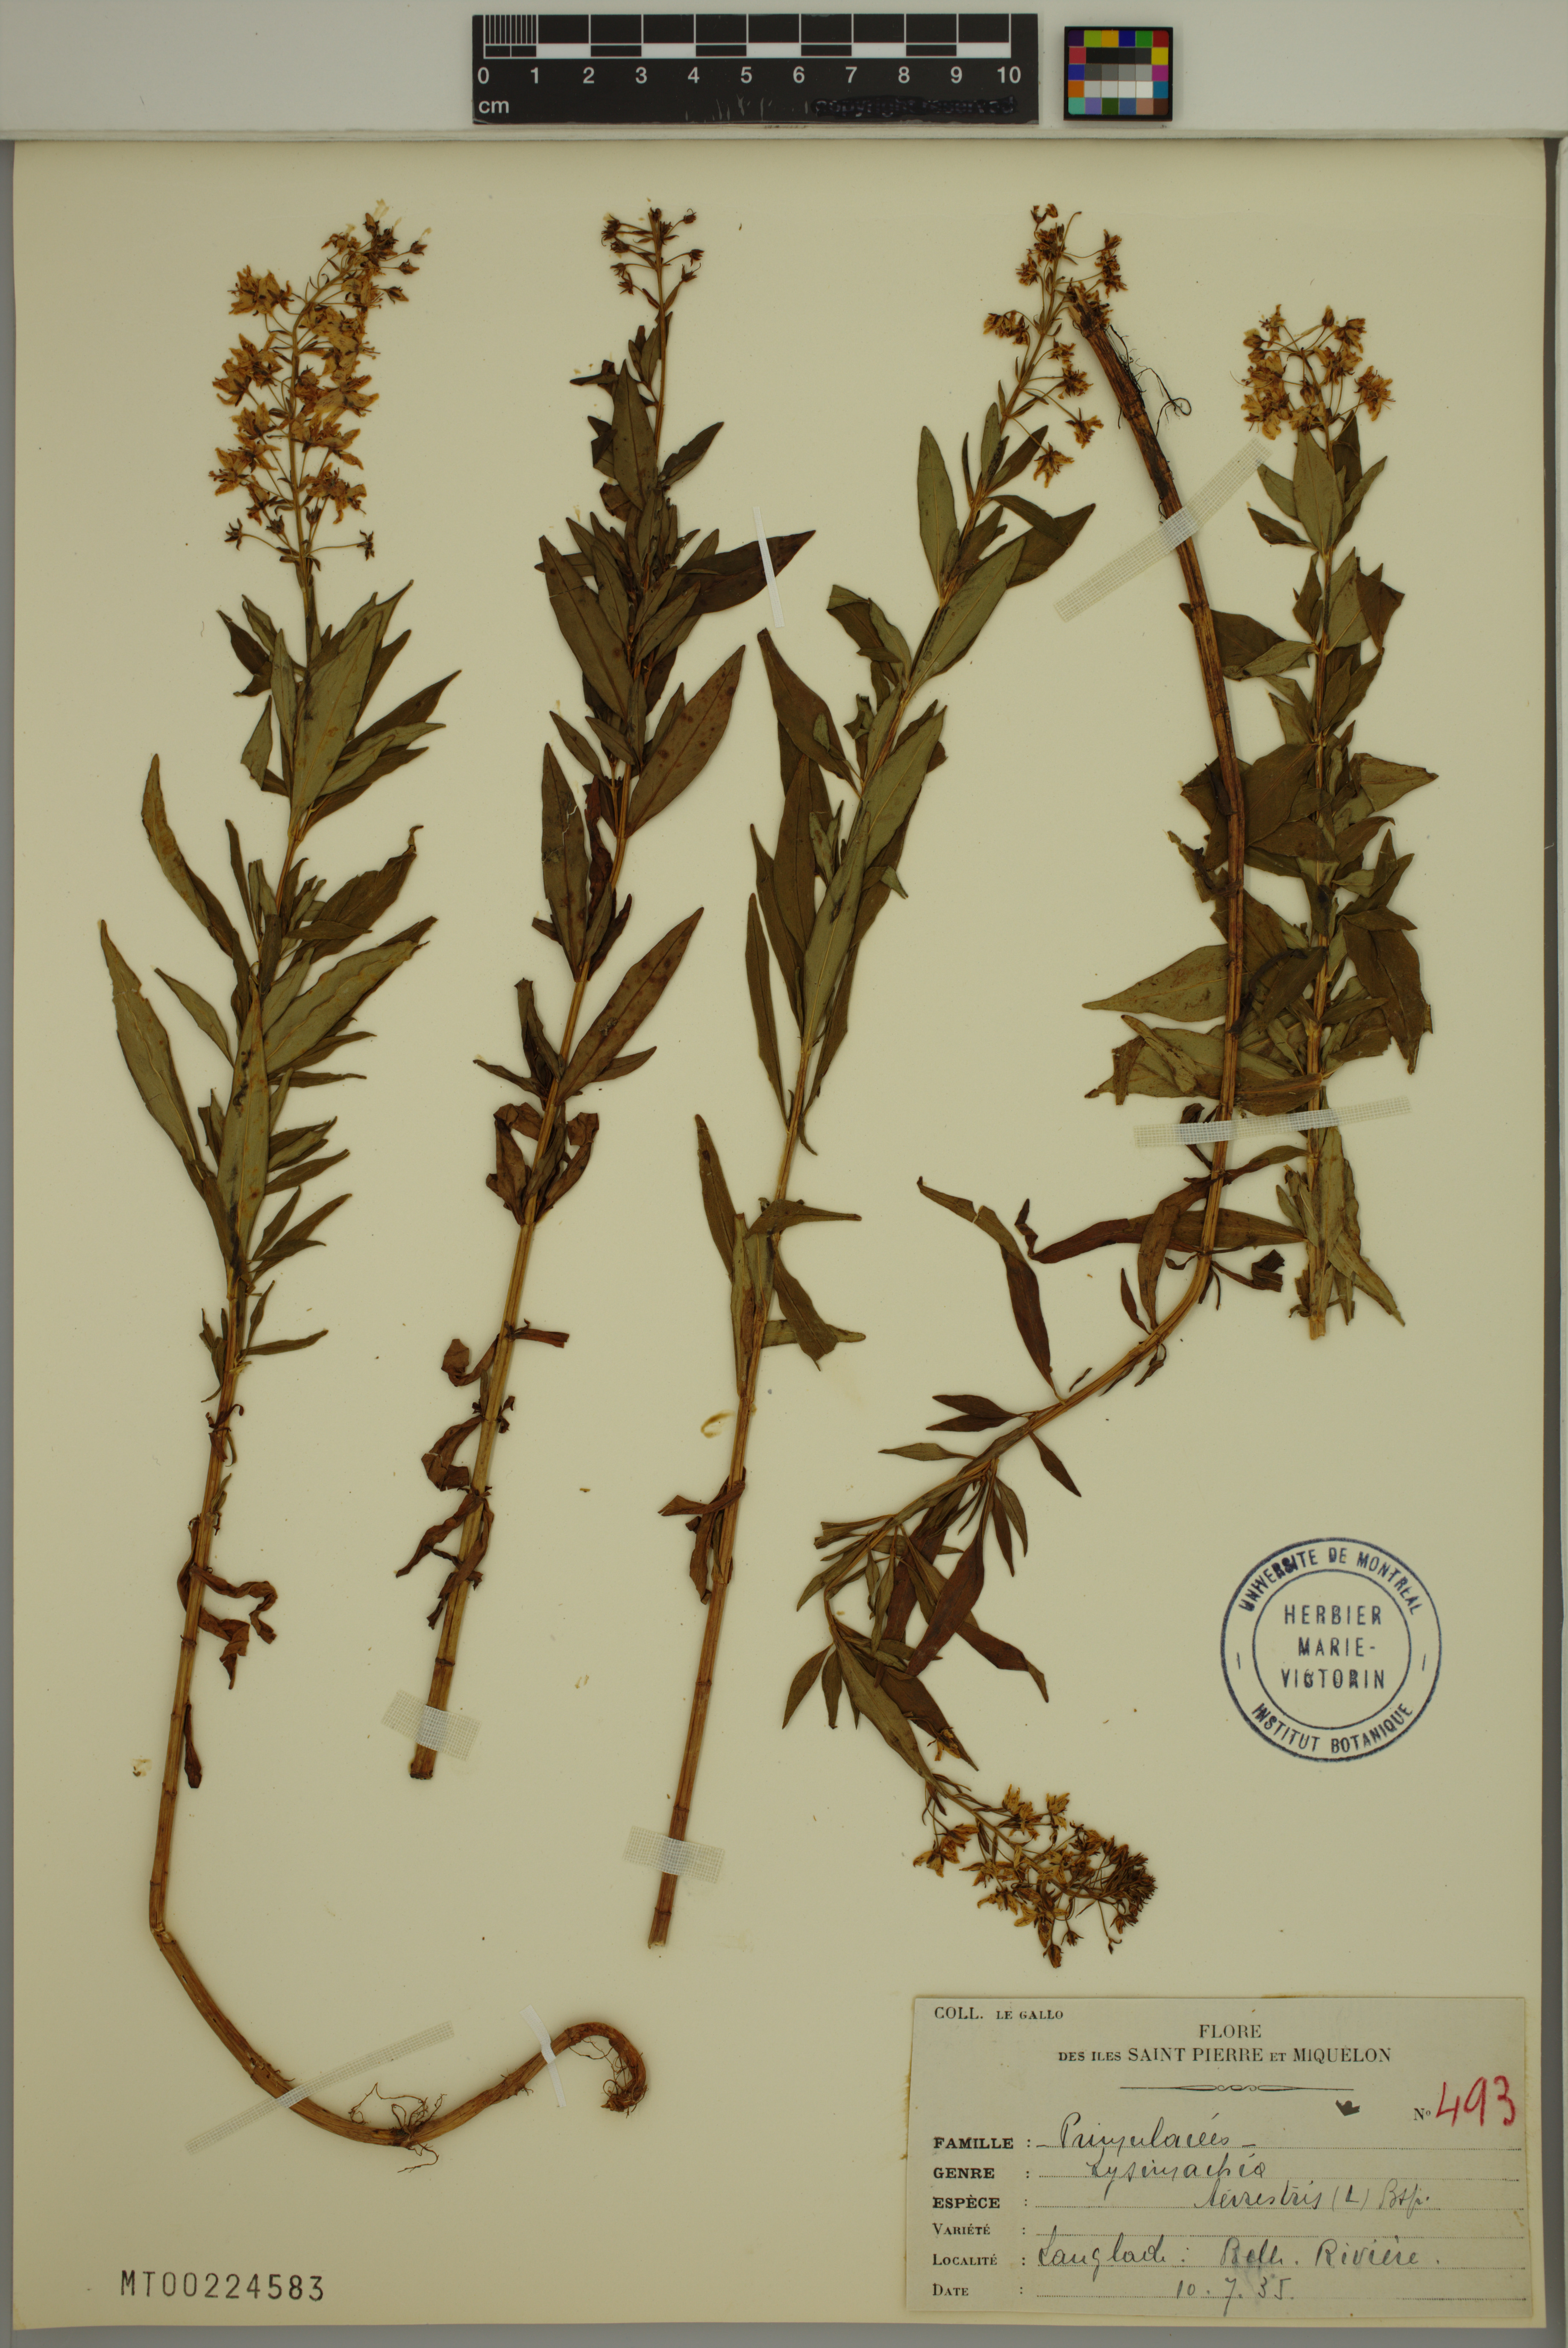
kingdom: Plantae
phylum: Tracheophyta
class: Magnoliopsida
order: Ericales
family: Primulaceae
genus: Lysimachia
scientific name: Lysimachia terrestris
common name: Lake loosestrife
